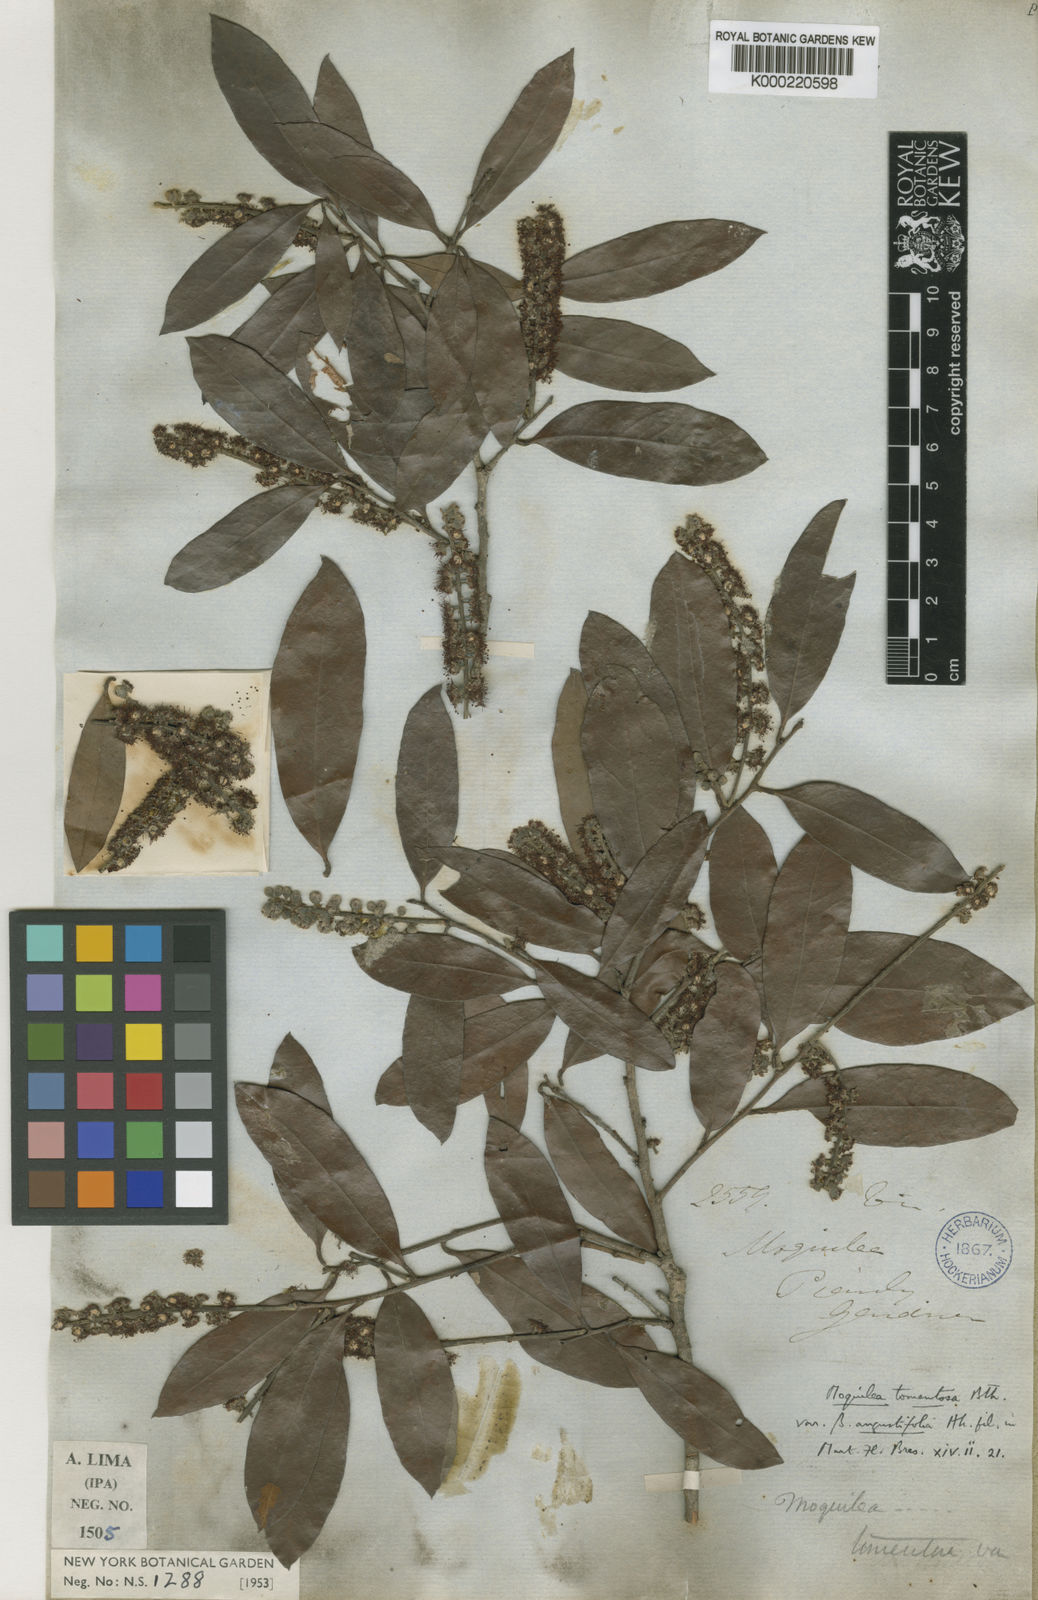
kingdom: Plantae
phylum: Tracheophyta
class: Magnoliopsida
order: Malpighiales
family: Chrysobalanaceae
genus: Moquilea
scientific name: Moquilea tomentosa
